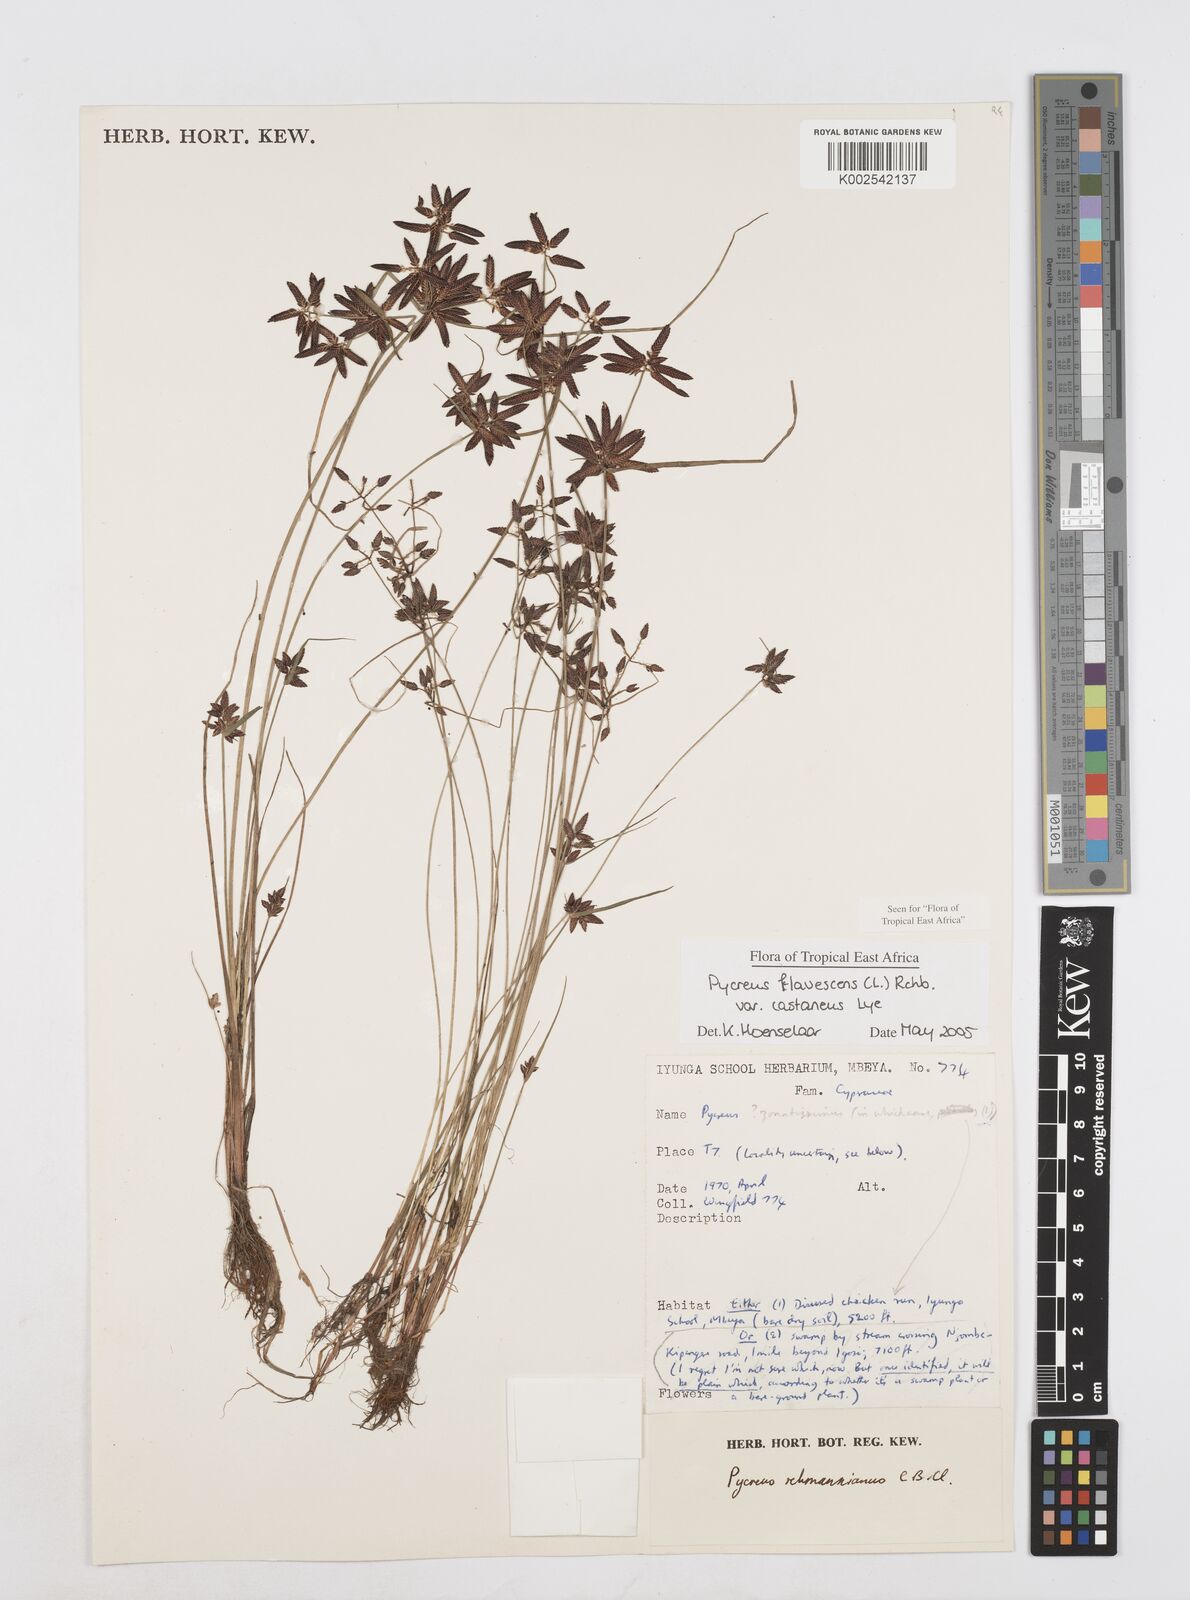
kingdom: Plantae
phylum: Tracheophyta
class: Liliopsida
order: Poales
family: Cyperaceae
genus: Cyperus
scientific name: Cyperus flavescens
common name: Yellow galingale
